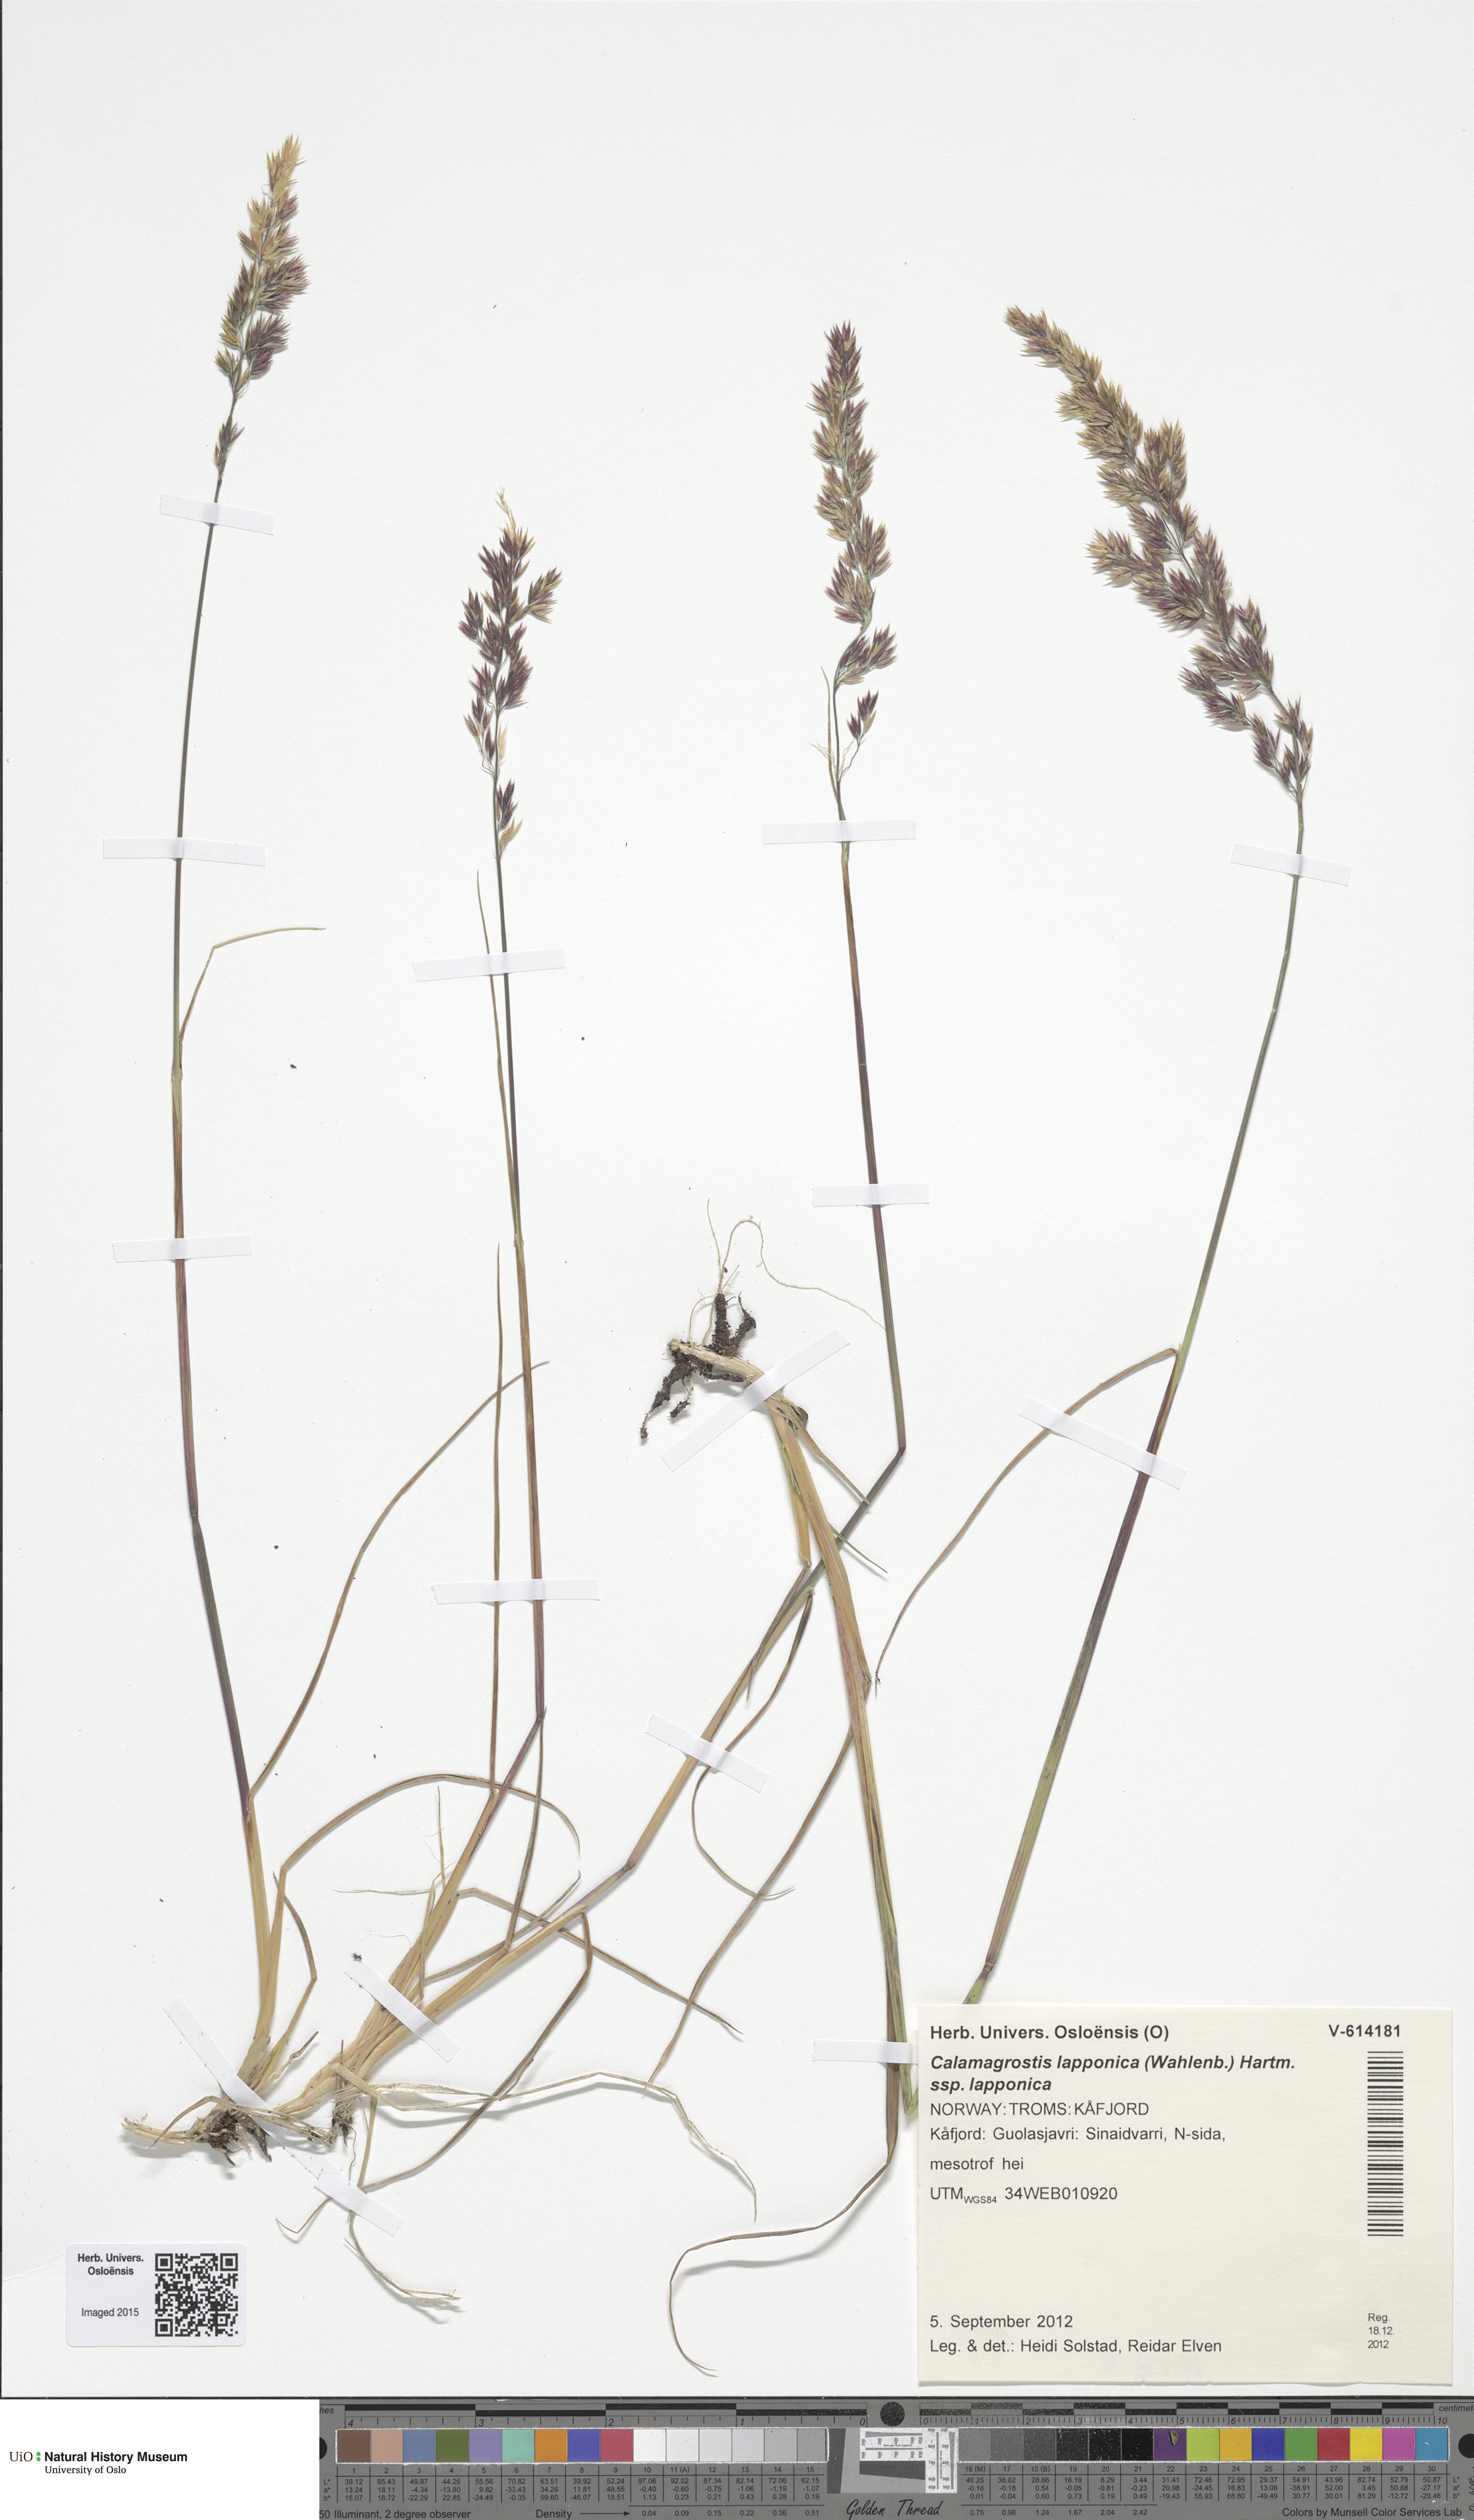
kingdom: Plantae
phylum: Tracheophyta
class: Liliopsida
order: Poales
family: Poaceae
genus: Calamagrostis
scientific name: Calamagrostis lapponica
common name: Lapland reedgrass
